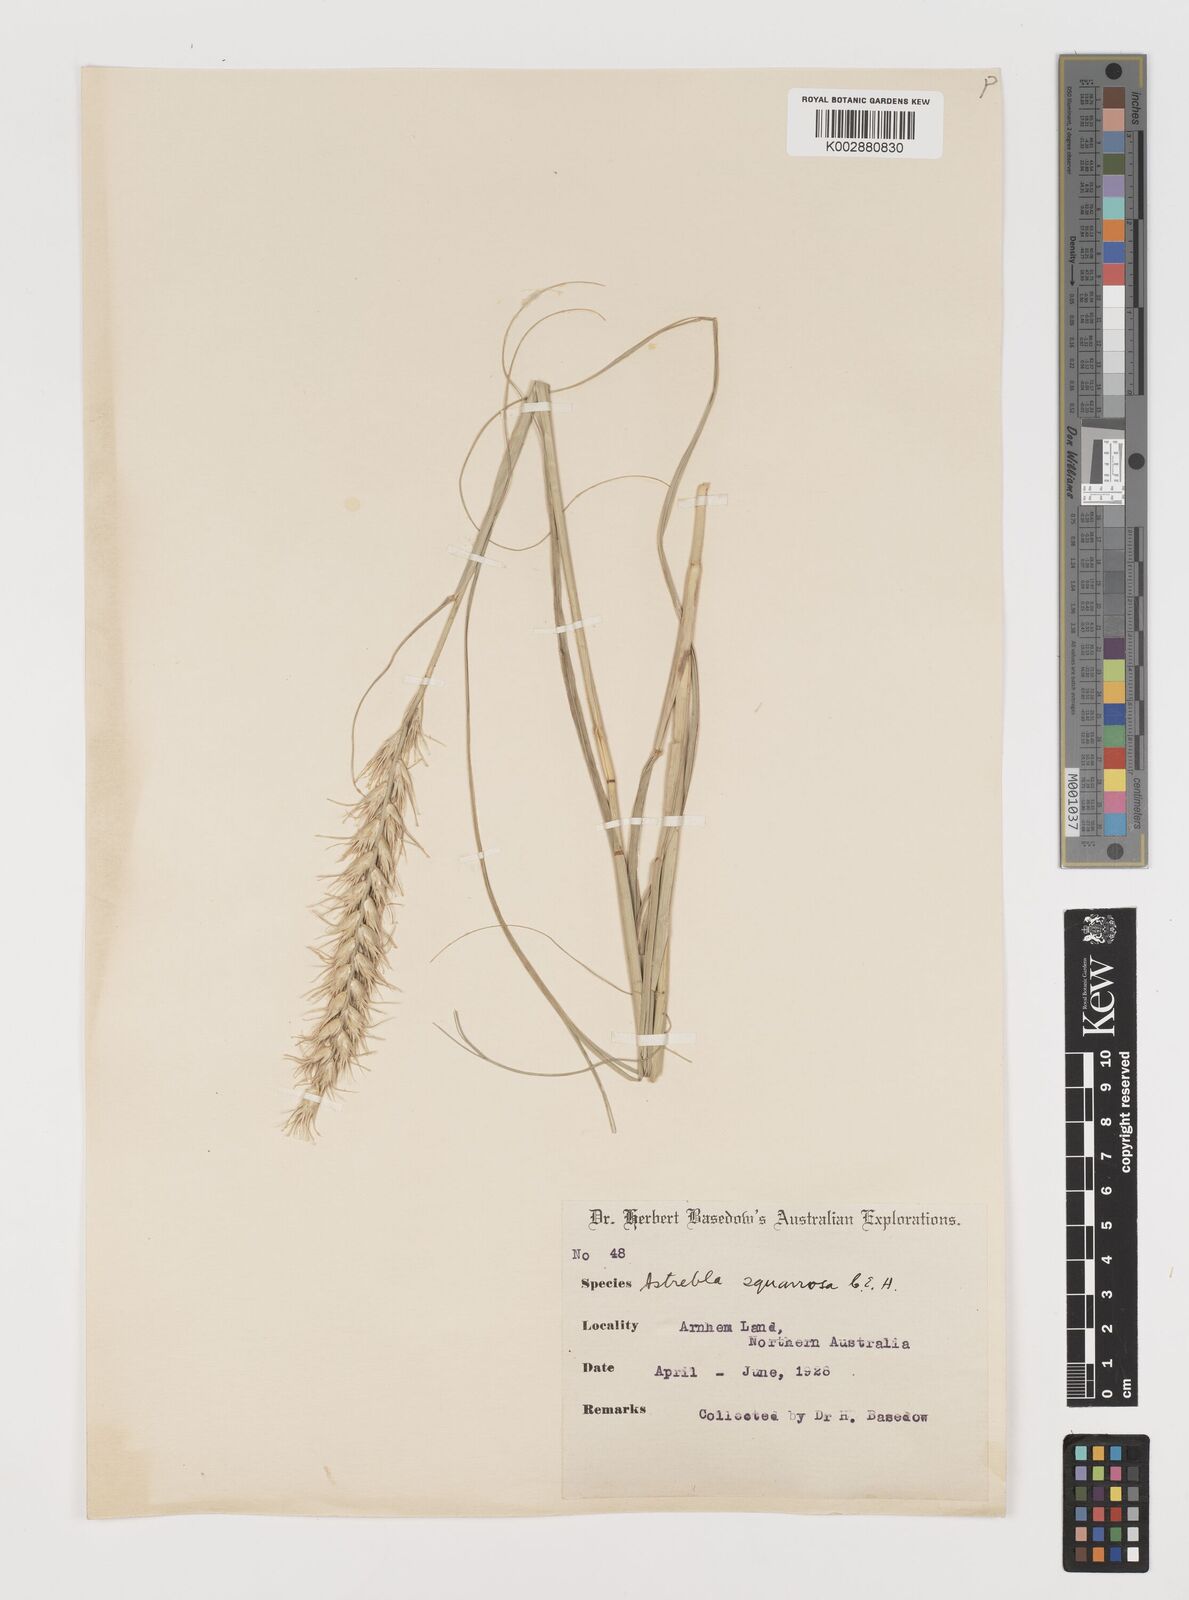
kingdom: Plantae
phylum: Tracheophyta
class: Liliopsida
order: Poales
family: Poaceae
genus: Astrebla
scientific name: Astrebla squarrosa
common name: Wheat-ear mitchell grass
